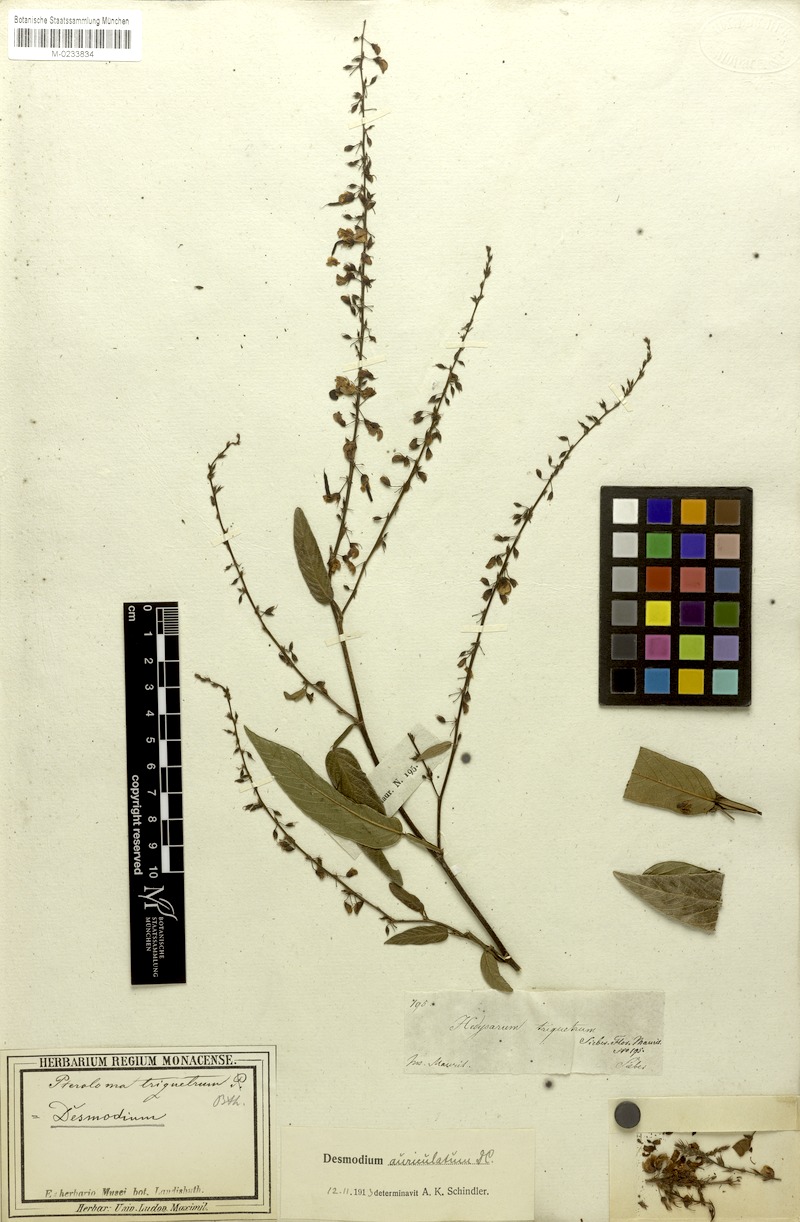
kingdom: Plantae
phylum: Tracheophyta
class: Magnoliopsida
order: Fabales
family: Fabaceae
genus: Tadehagi
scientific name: Tadehagi triquetrum
